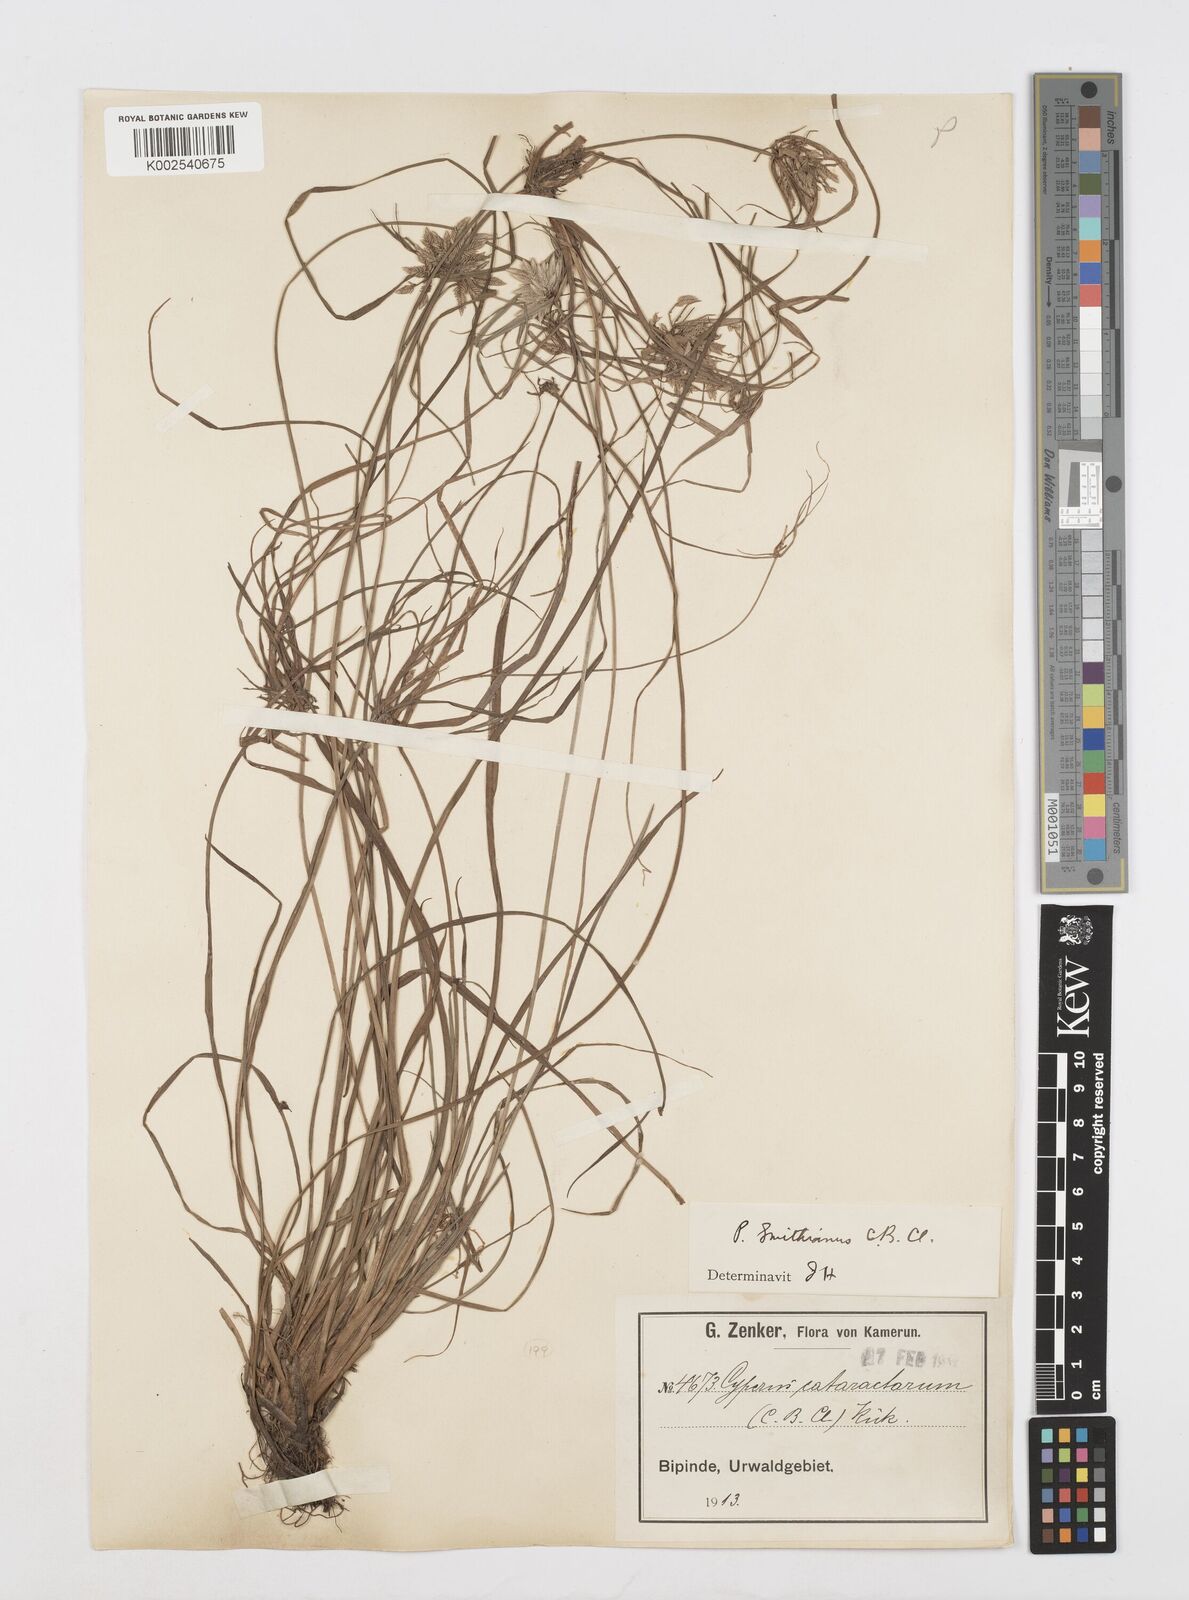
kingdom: Plantae
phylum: Tracheophyta
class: Liliopsida
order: Poales
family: Cyperaceae
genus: Cyperus
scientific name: Cyperus cataractarum
